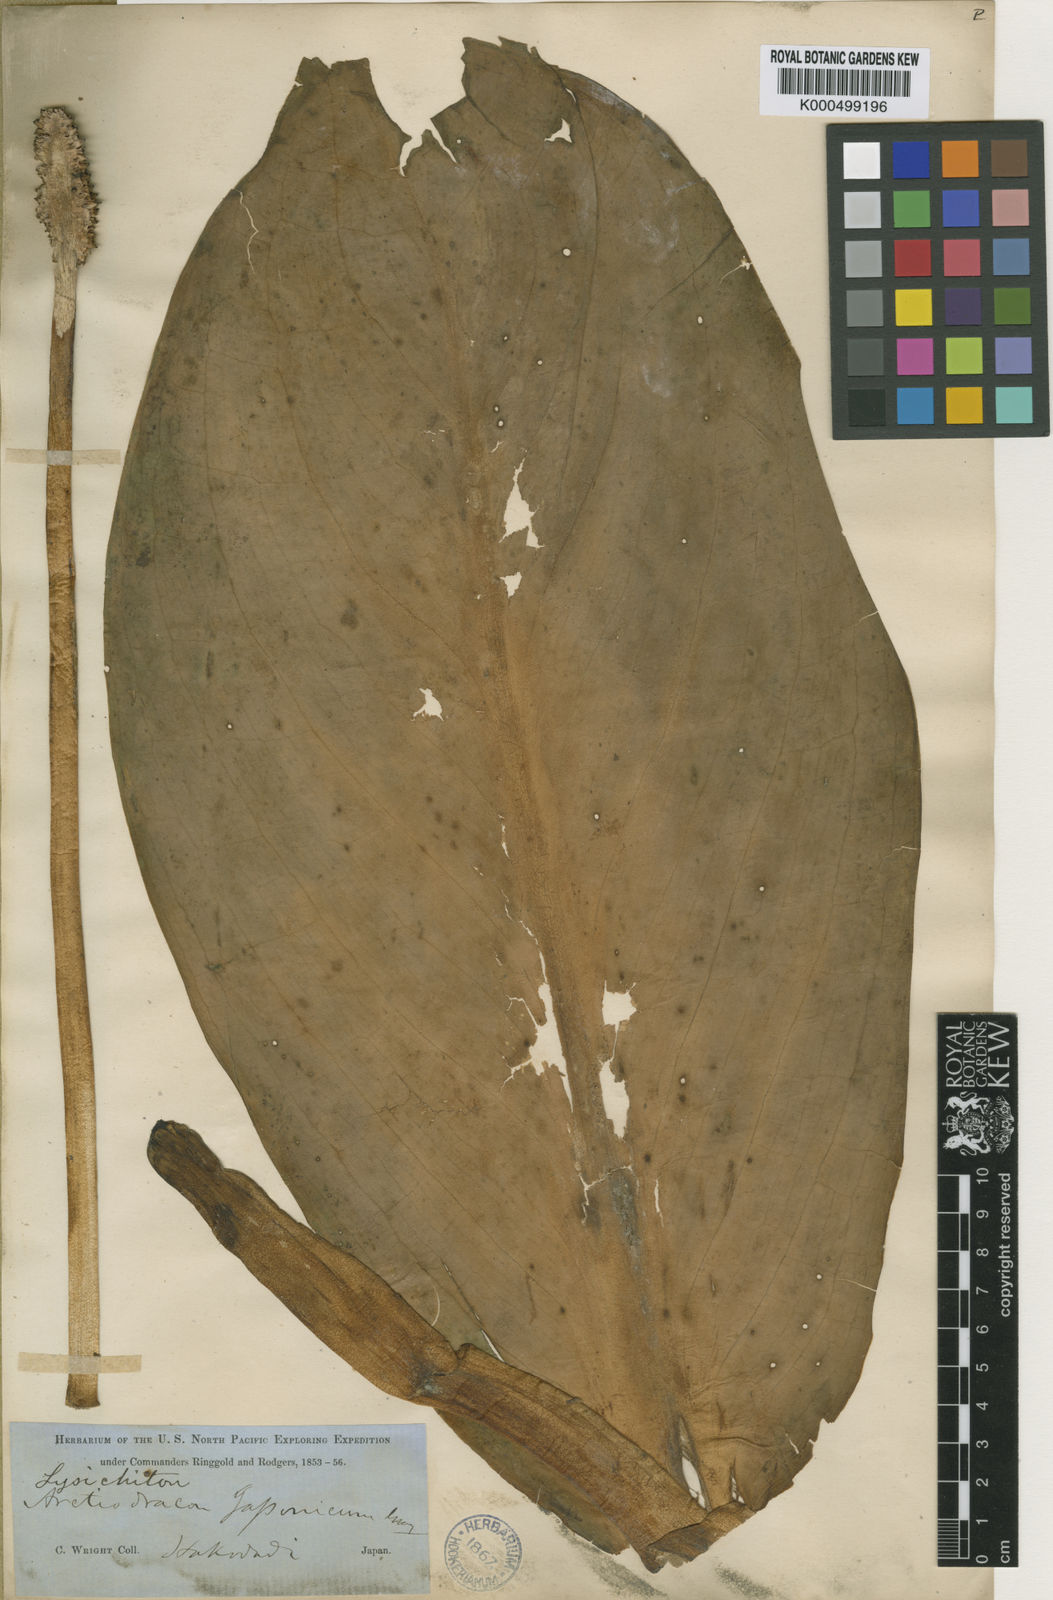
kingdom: Plantae
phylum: Tracheophyta
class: Liliopsida
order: Alismatales
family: Araceae
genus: Lysichiton
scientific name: Lysichiton camtschatcensis
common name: Asian skunk-cabbage
